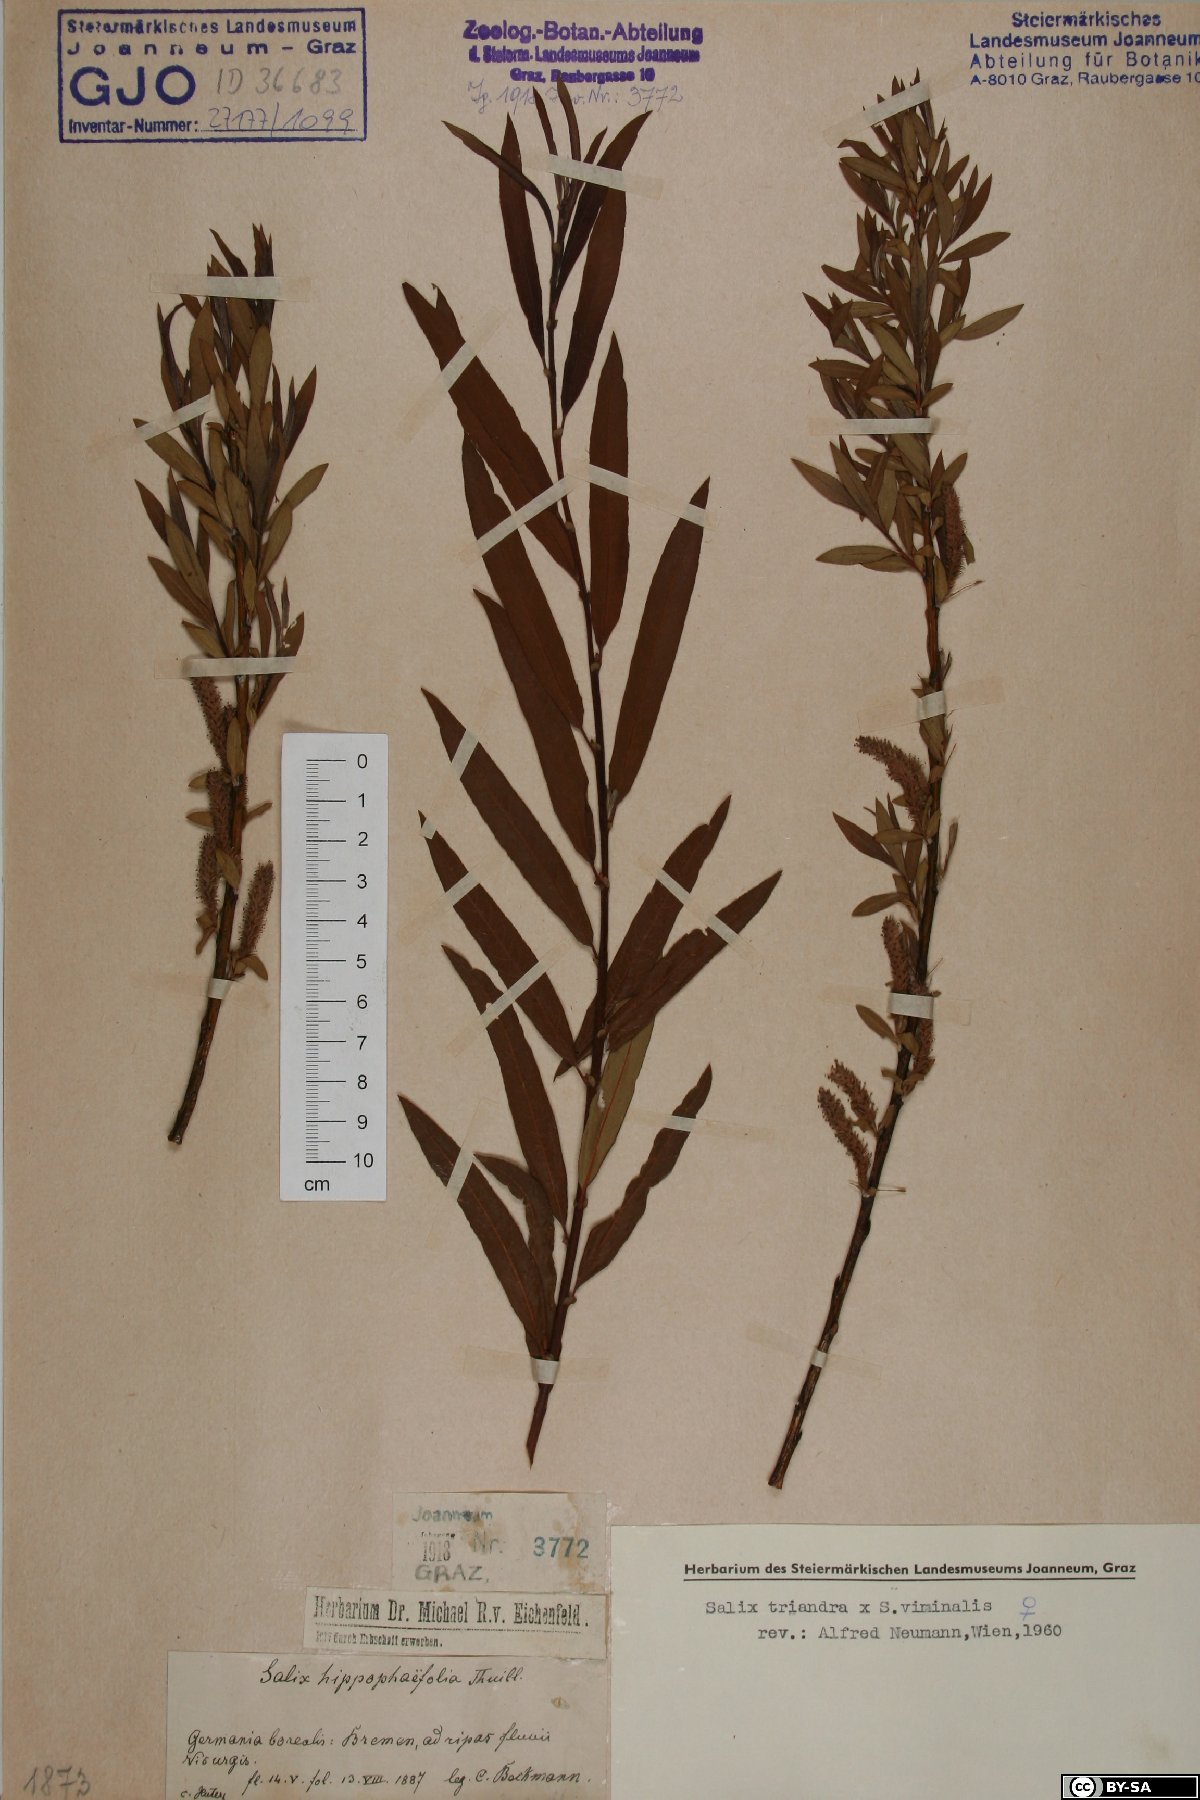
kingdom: Plantae
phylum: Tracheophyta
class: Magnoliopsida
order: Malpighiales
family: Salicaceae
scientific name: Salicaceae
